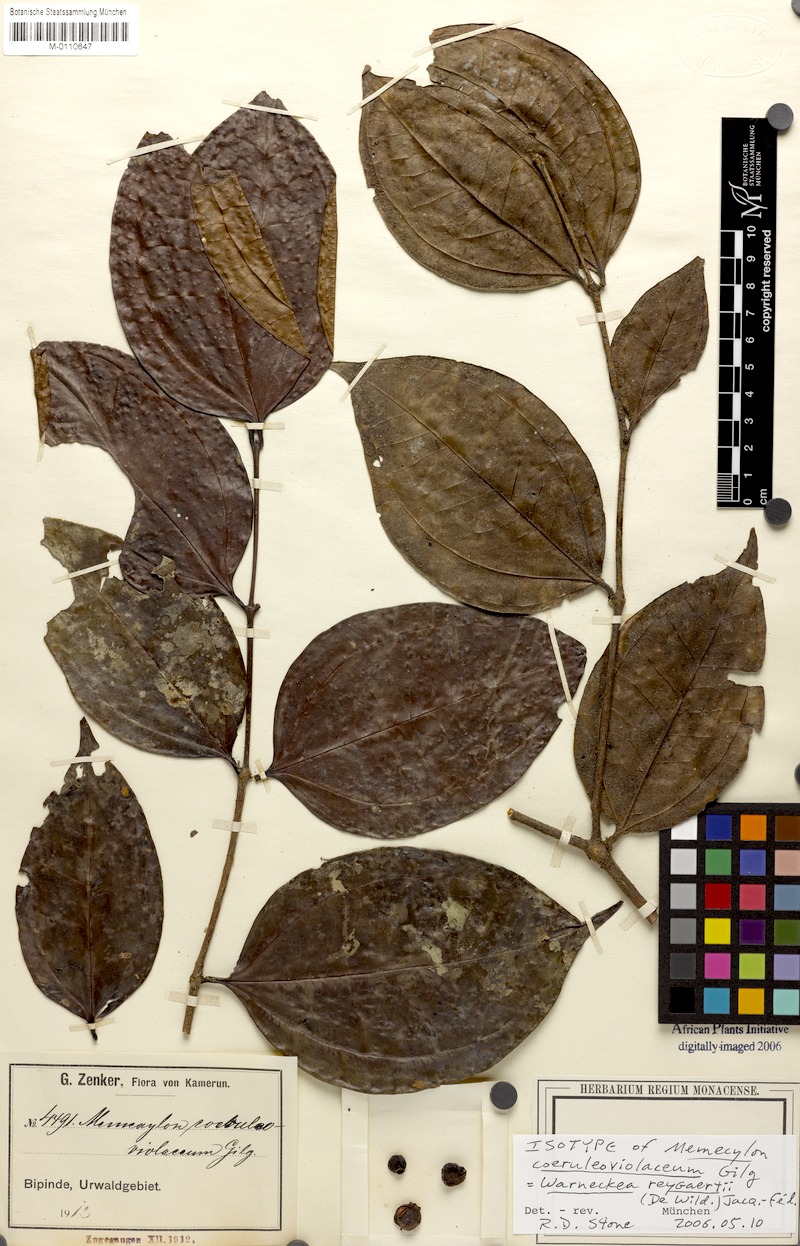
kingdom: Plantae
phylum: Tracheophyta
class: Magnoliopsida
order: Myrtales
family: Melastomataceae
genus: Warneckea
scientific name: Warneckea reygaertii
